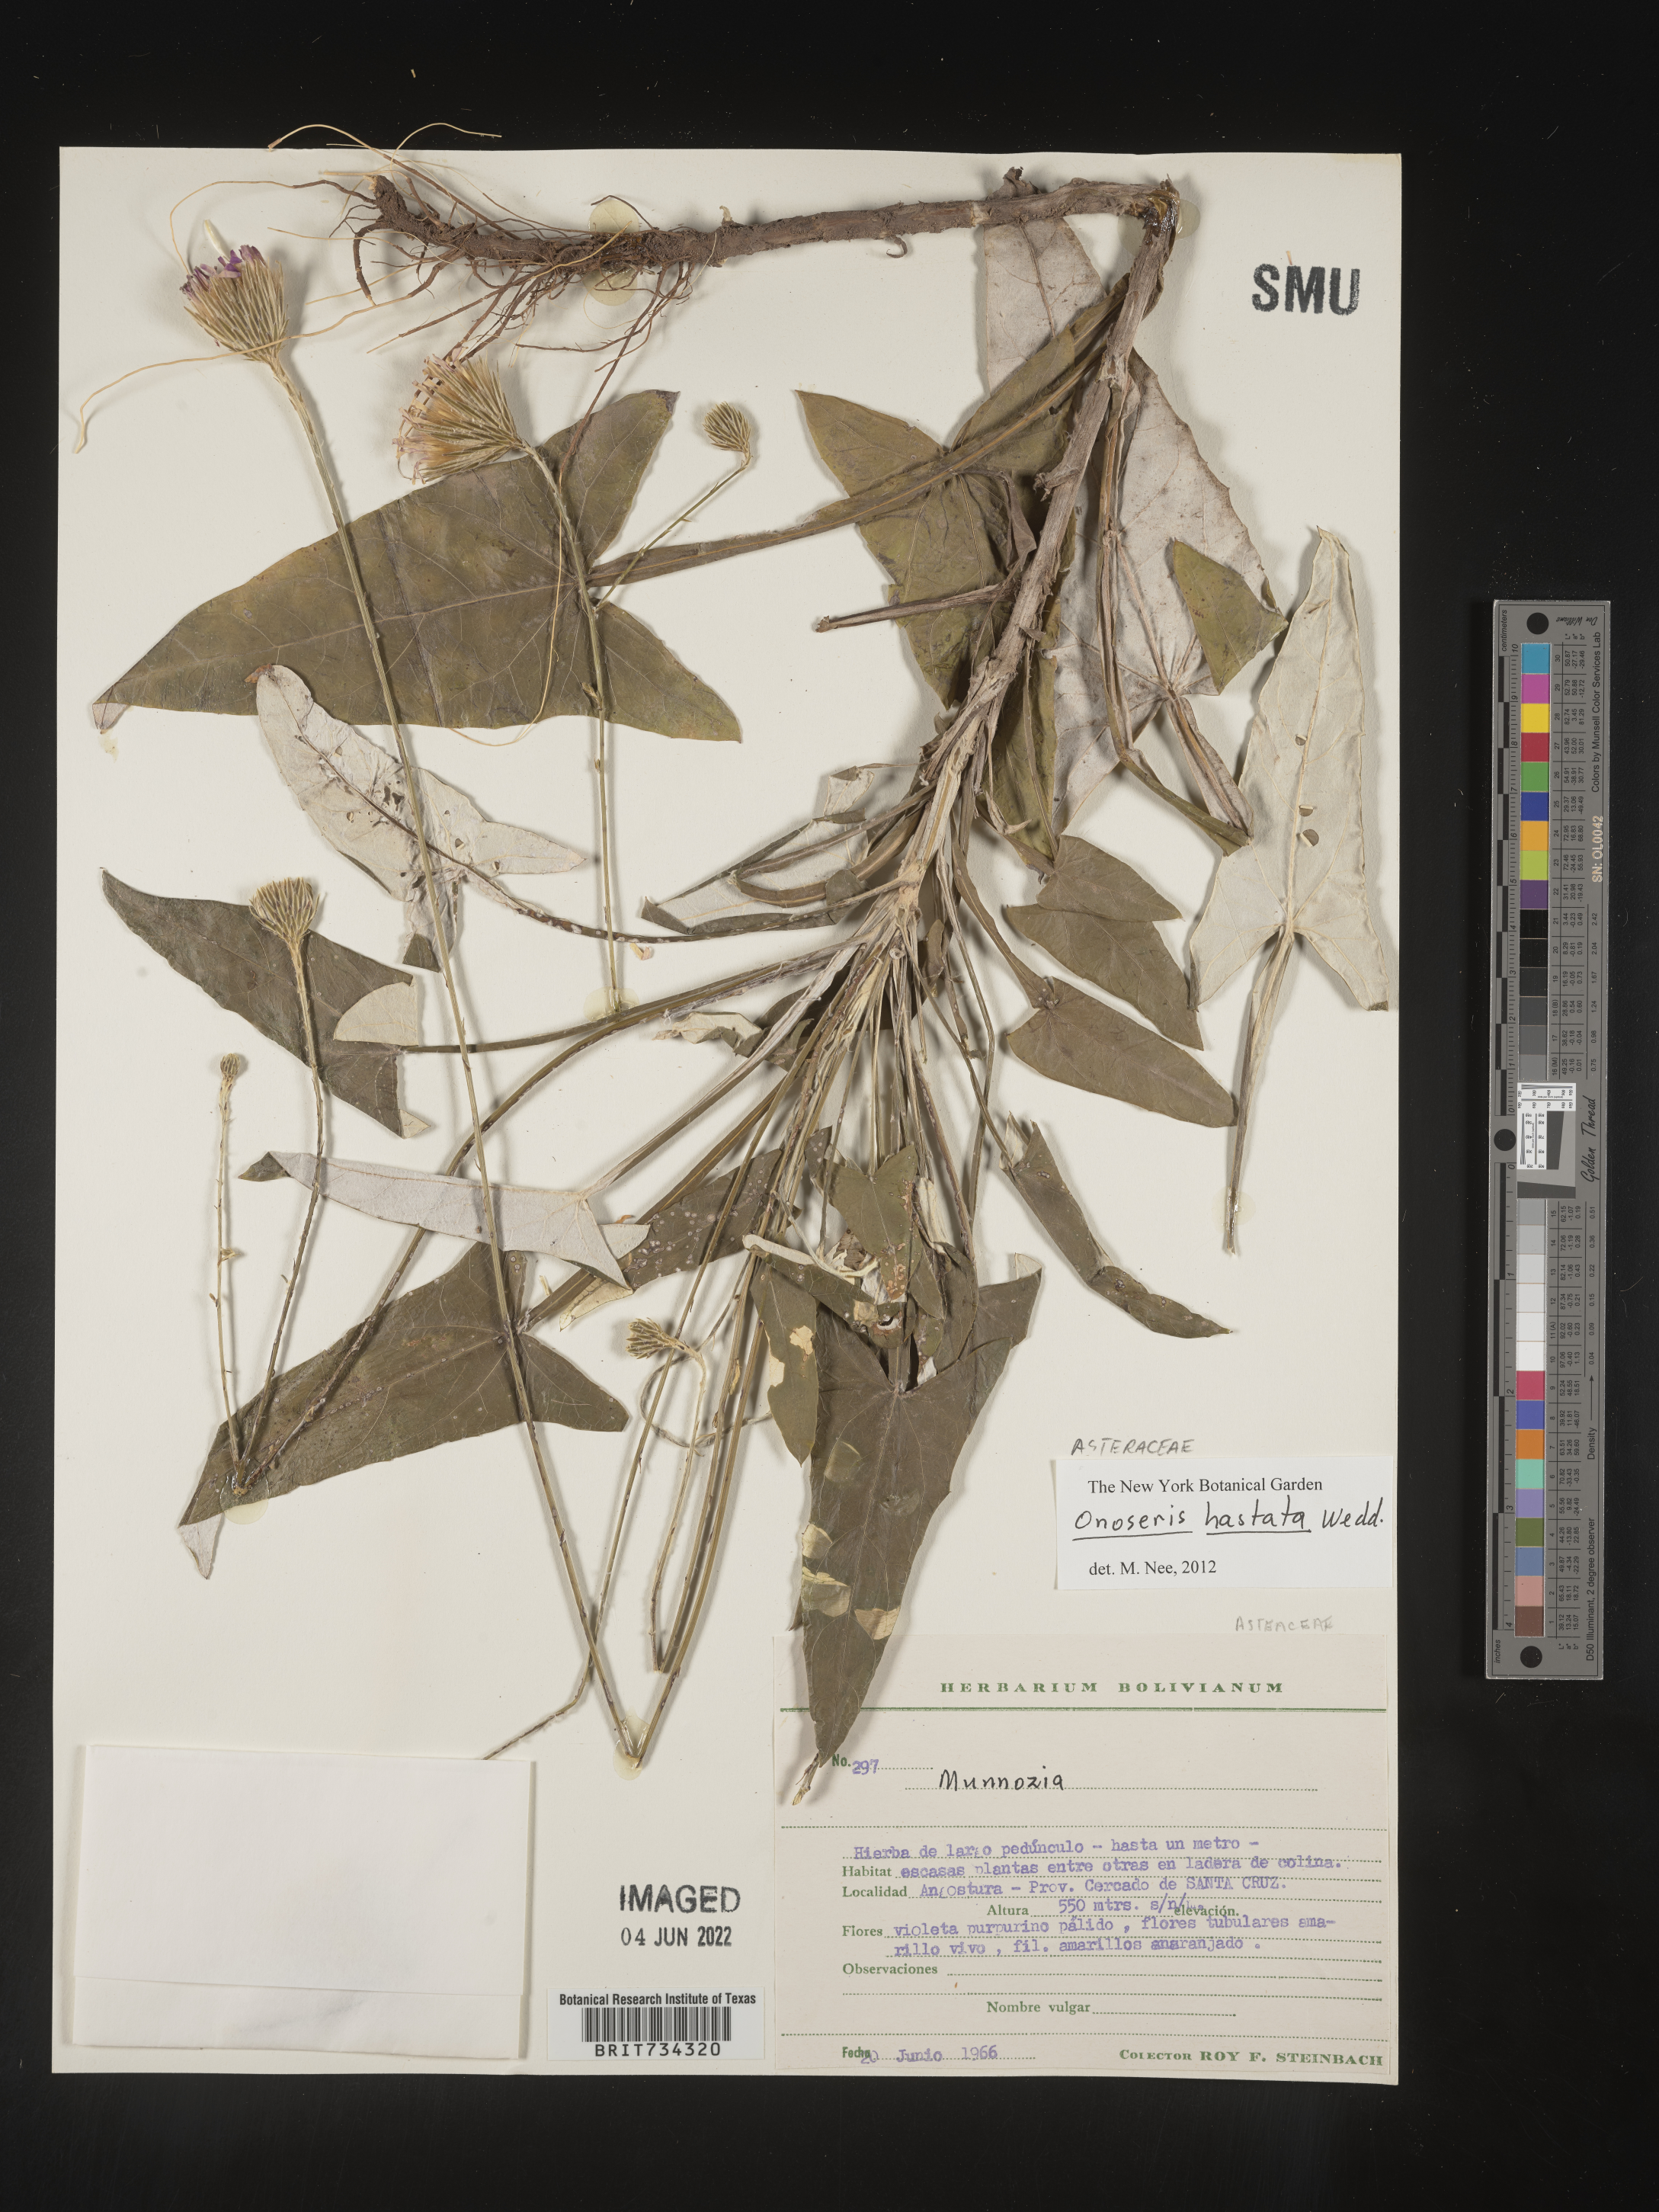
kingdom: Plantae
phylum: Tracheophyta
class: Magnoliopsida
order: Asterales
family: Asteraceae
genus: Onoseris
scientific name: Onoseris
